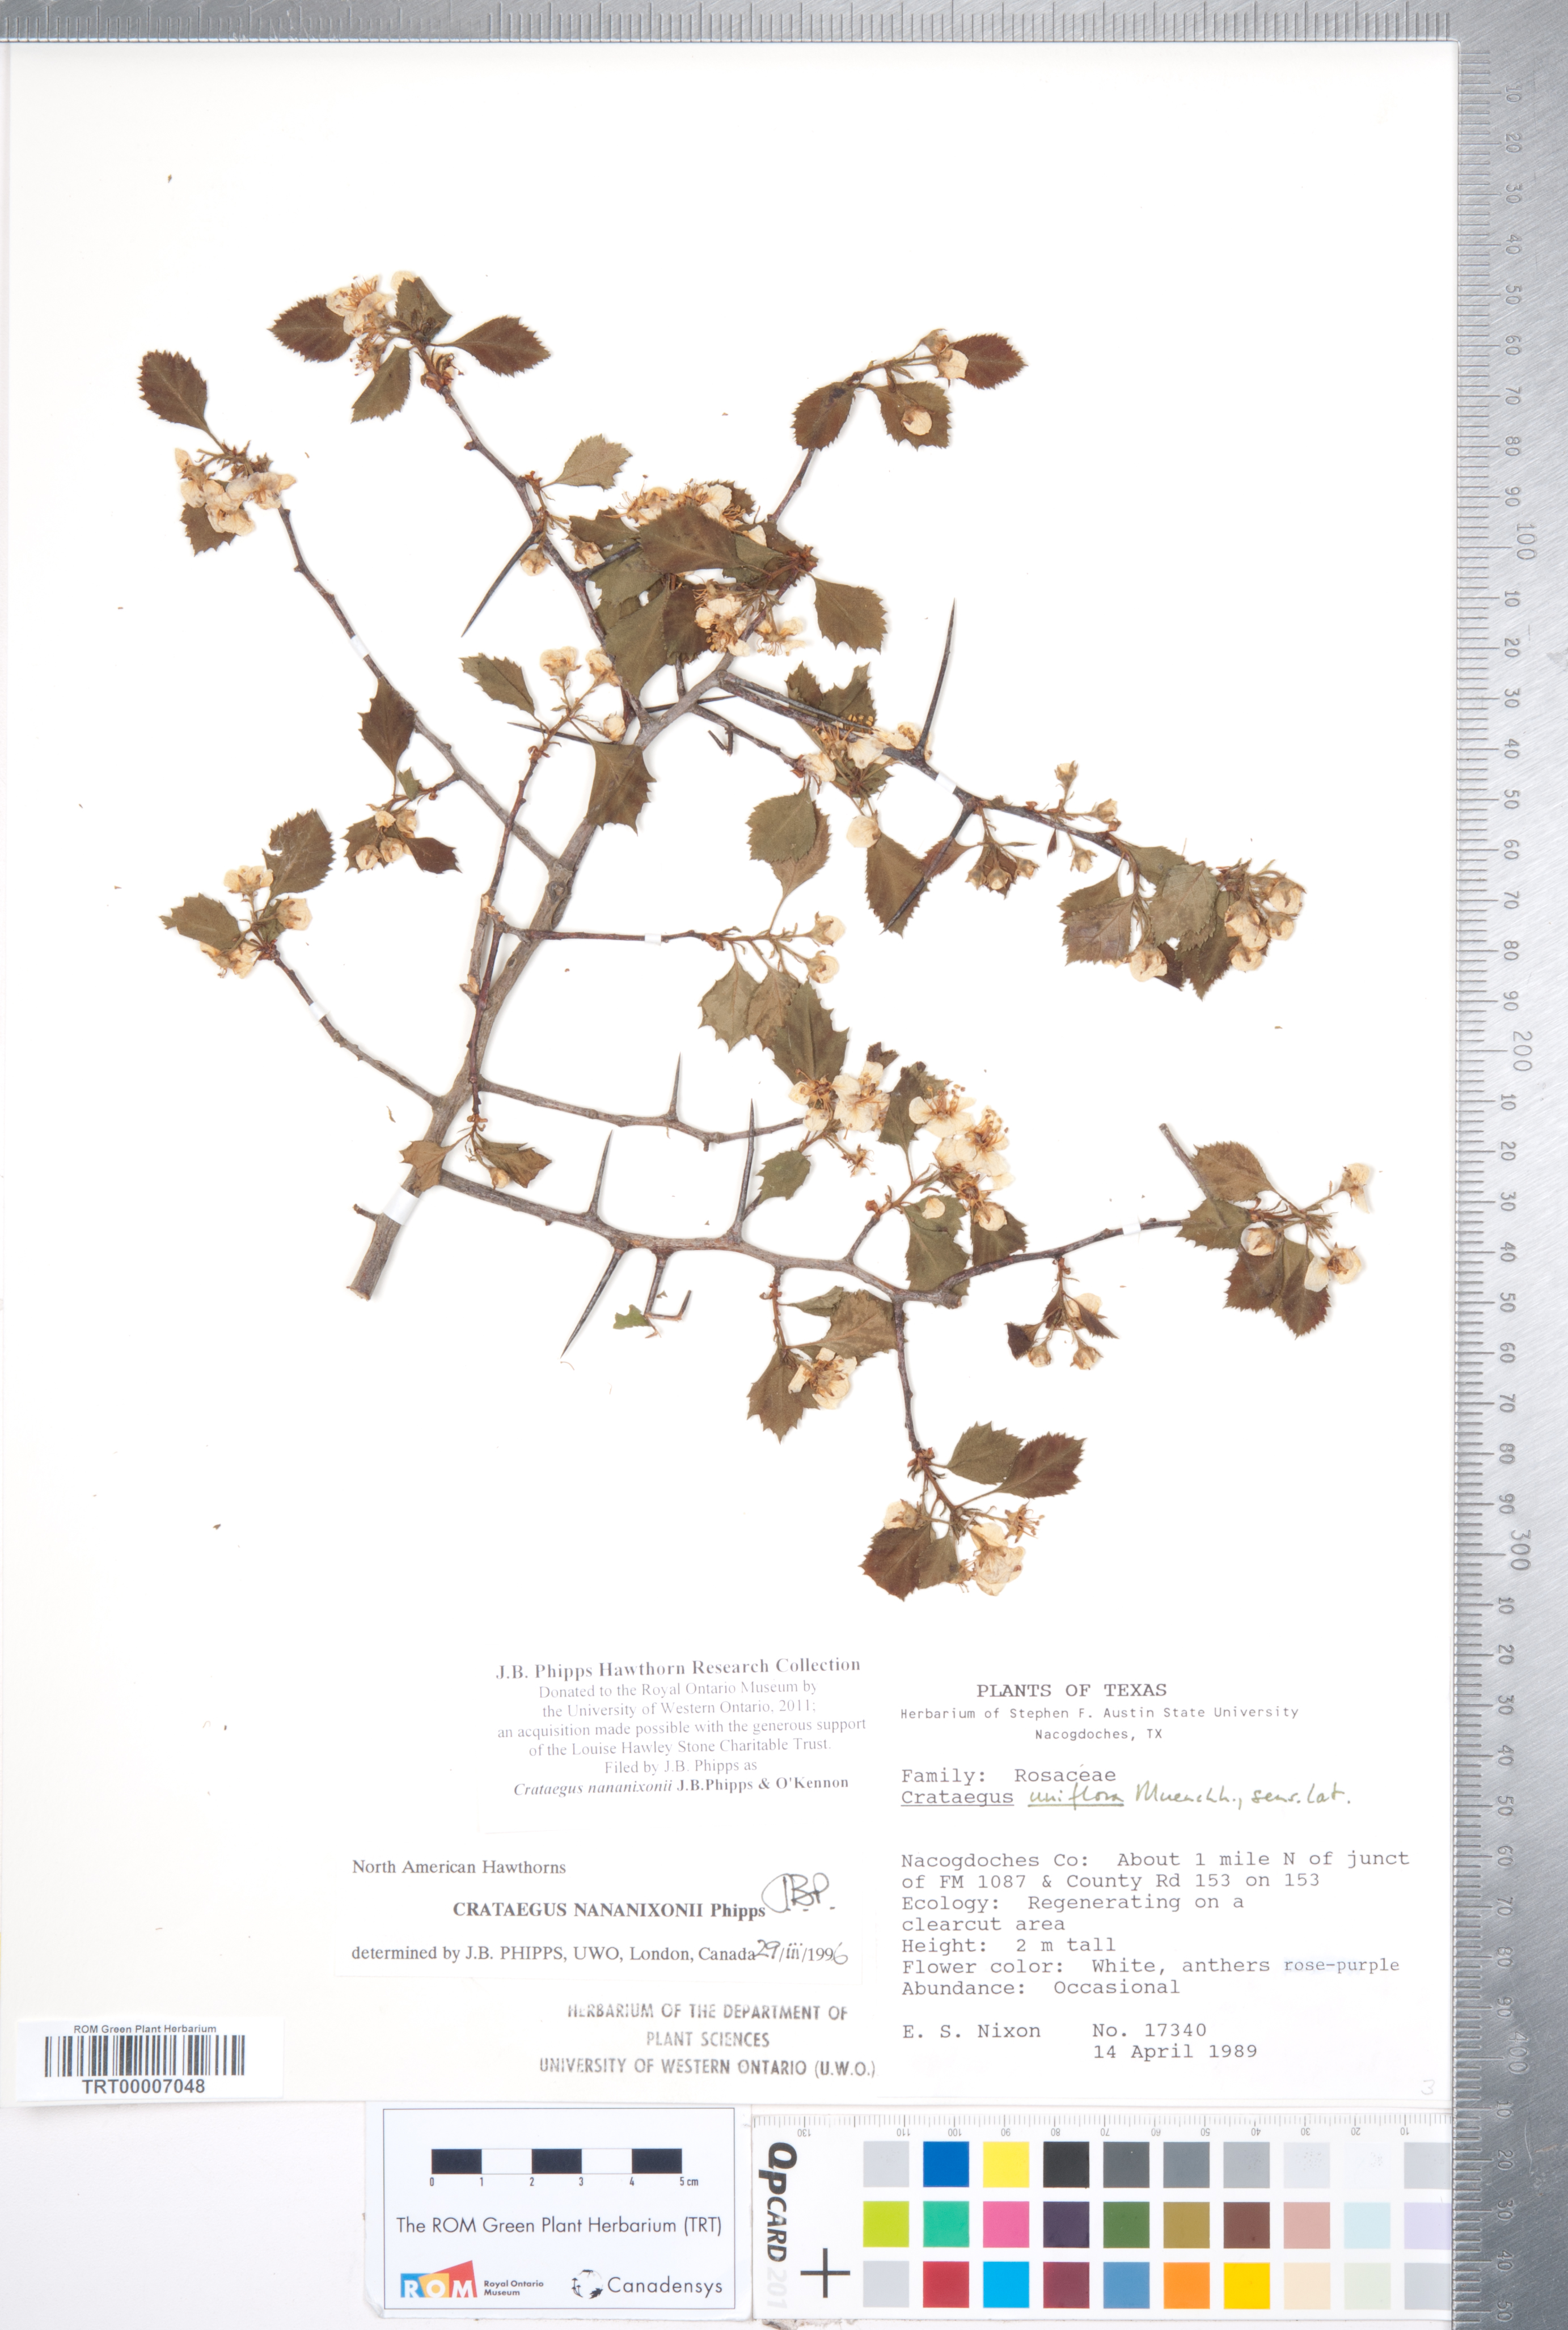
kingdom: Plantae
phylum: Tracheophyta
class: Magnoliopsida
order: Rosales
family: Rosaceae
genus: Crataegus
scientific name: Crataegus nananixonii
